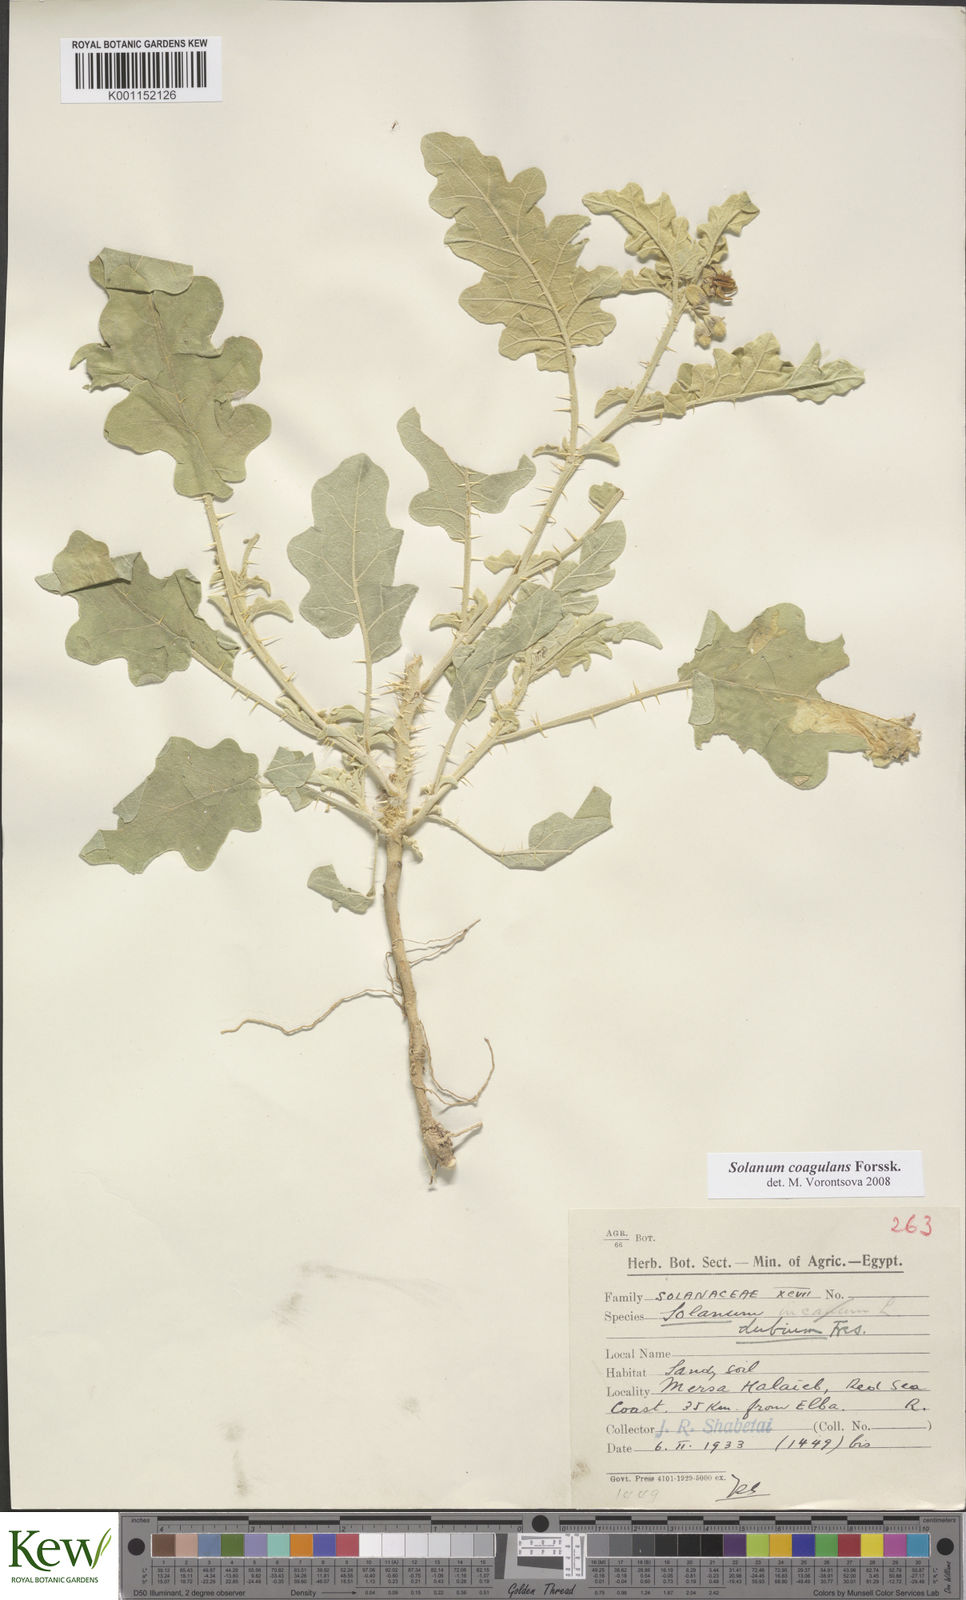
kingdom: Plantae
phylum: Tracheophyta
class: Magnoliopsida
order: Solanales
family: Solanaceae
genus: Solanum
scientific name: Solanum coagulans
